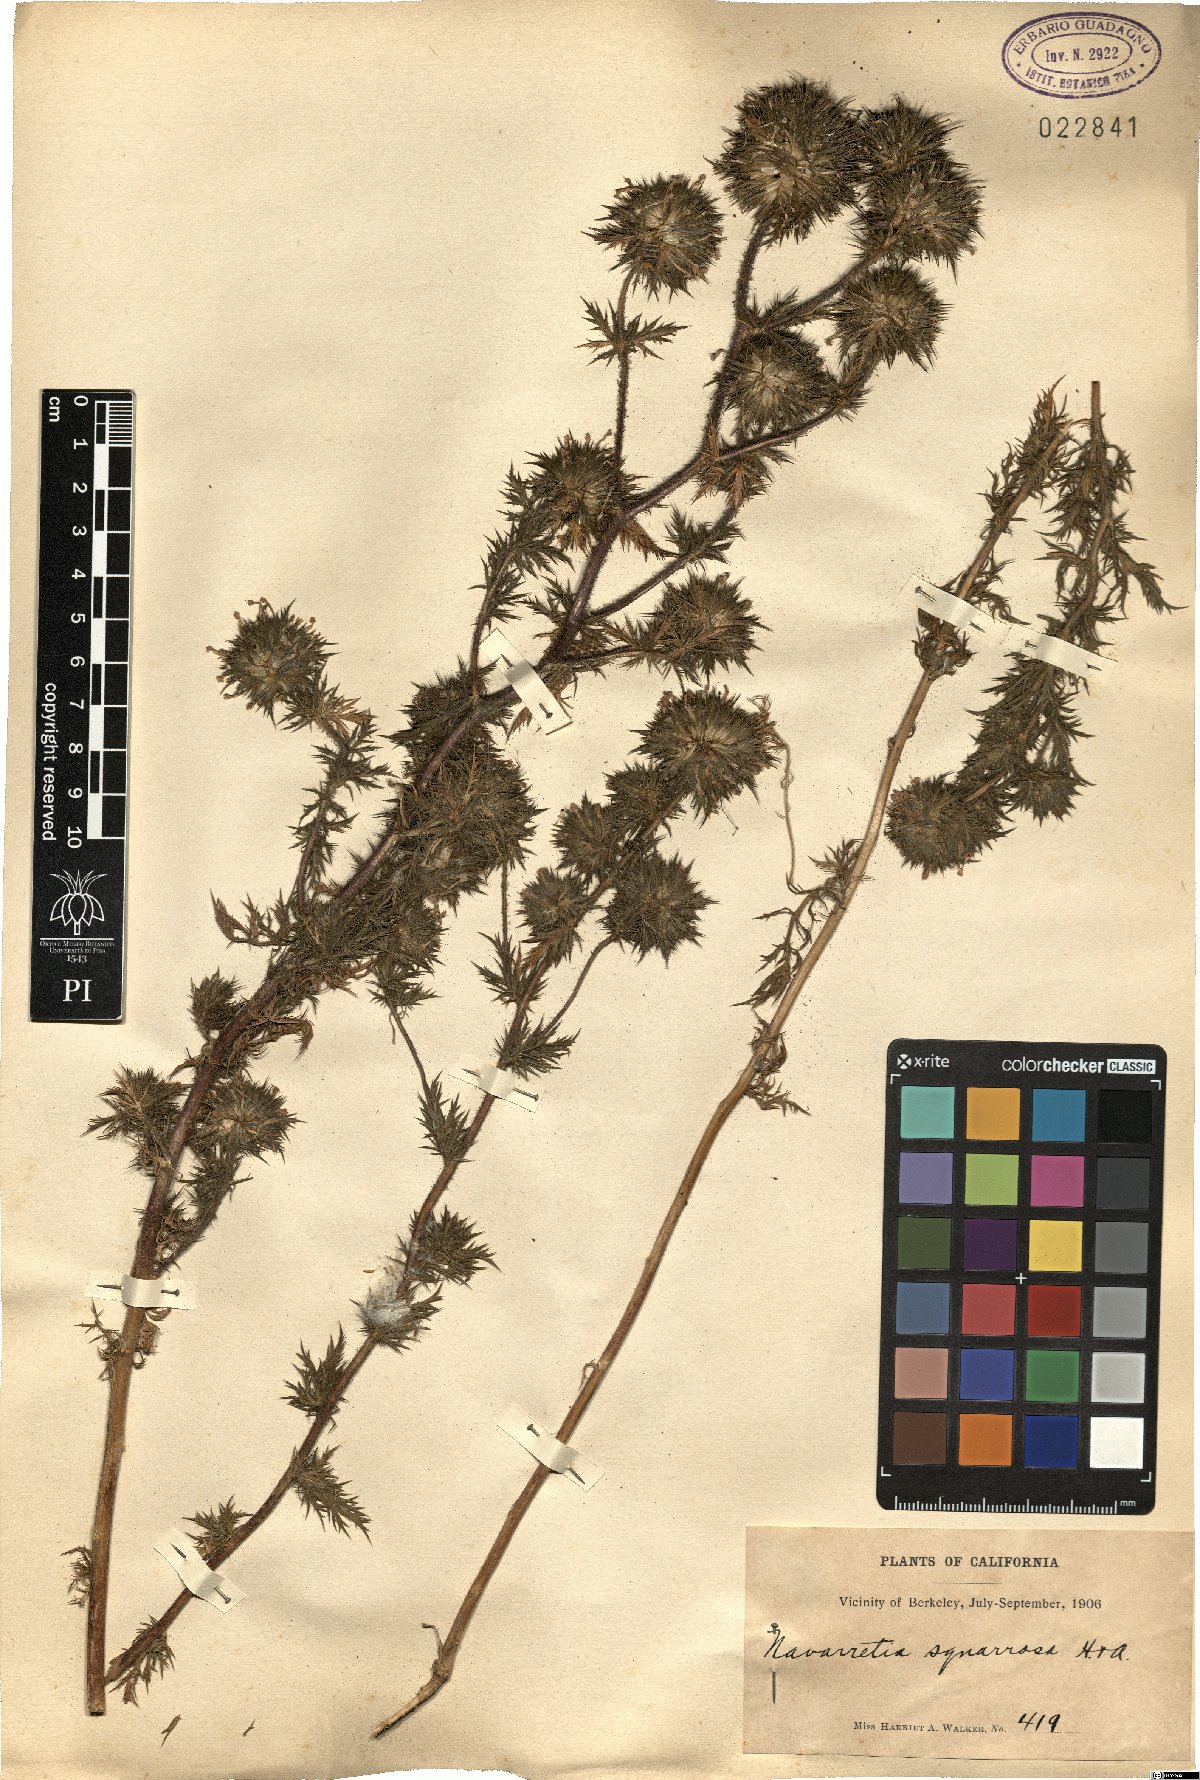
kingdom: Plantae
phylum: Tracheophyta
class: Magnoliopsida
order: Ericales
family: Polemoniaceae
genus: Navarretia
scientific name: Navarretia squarrosa
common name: Skunkweed
